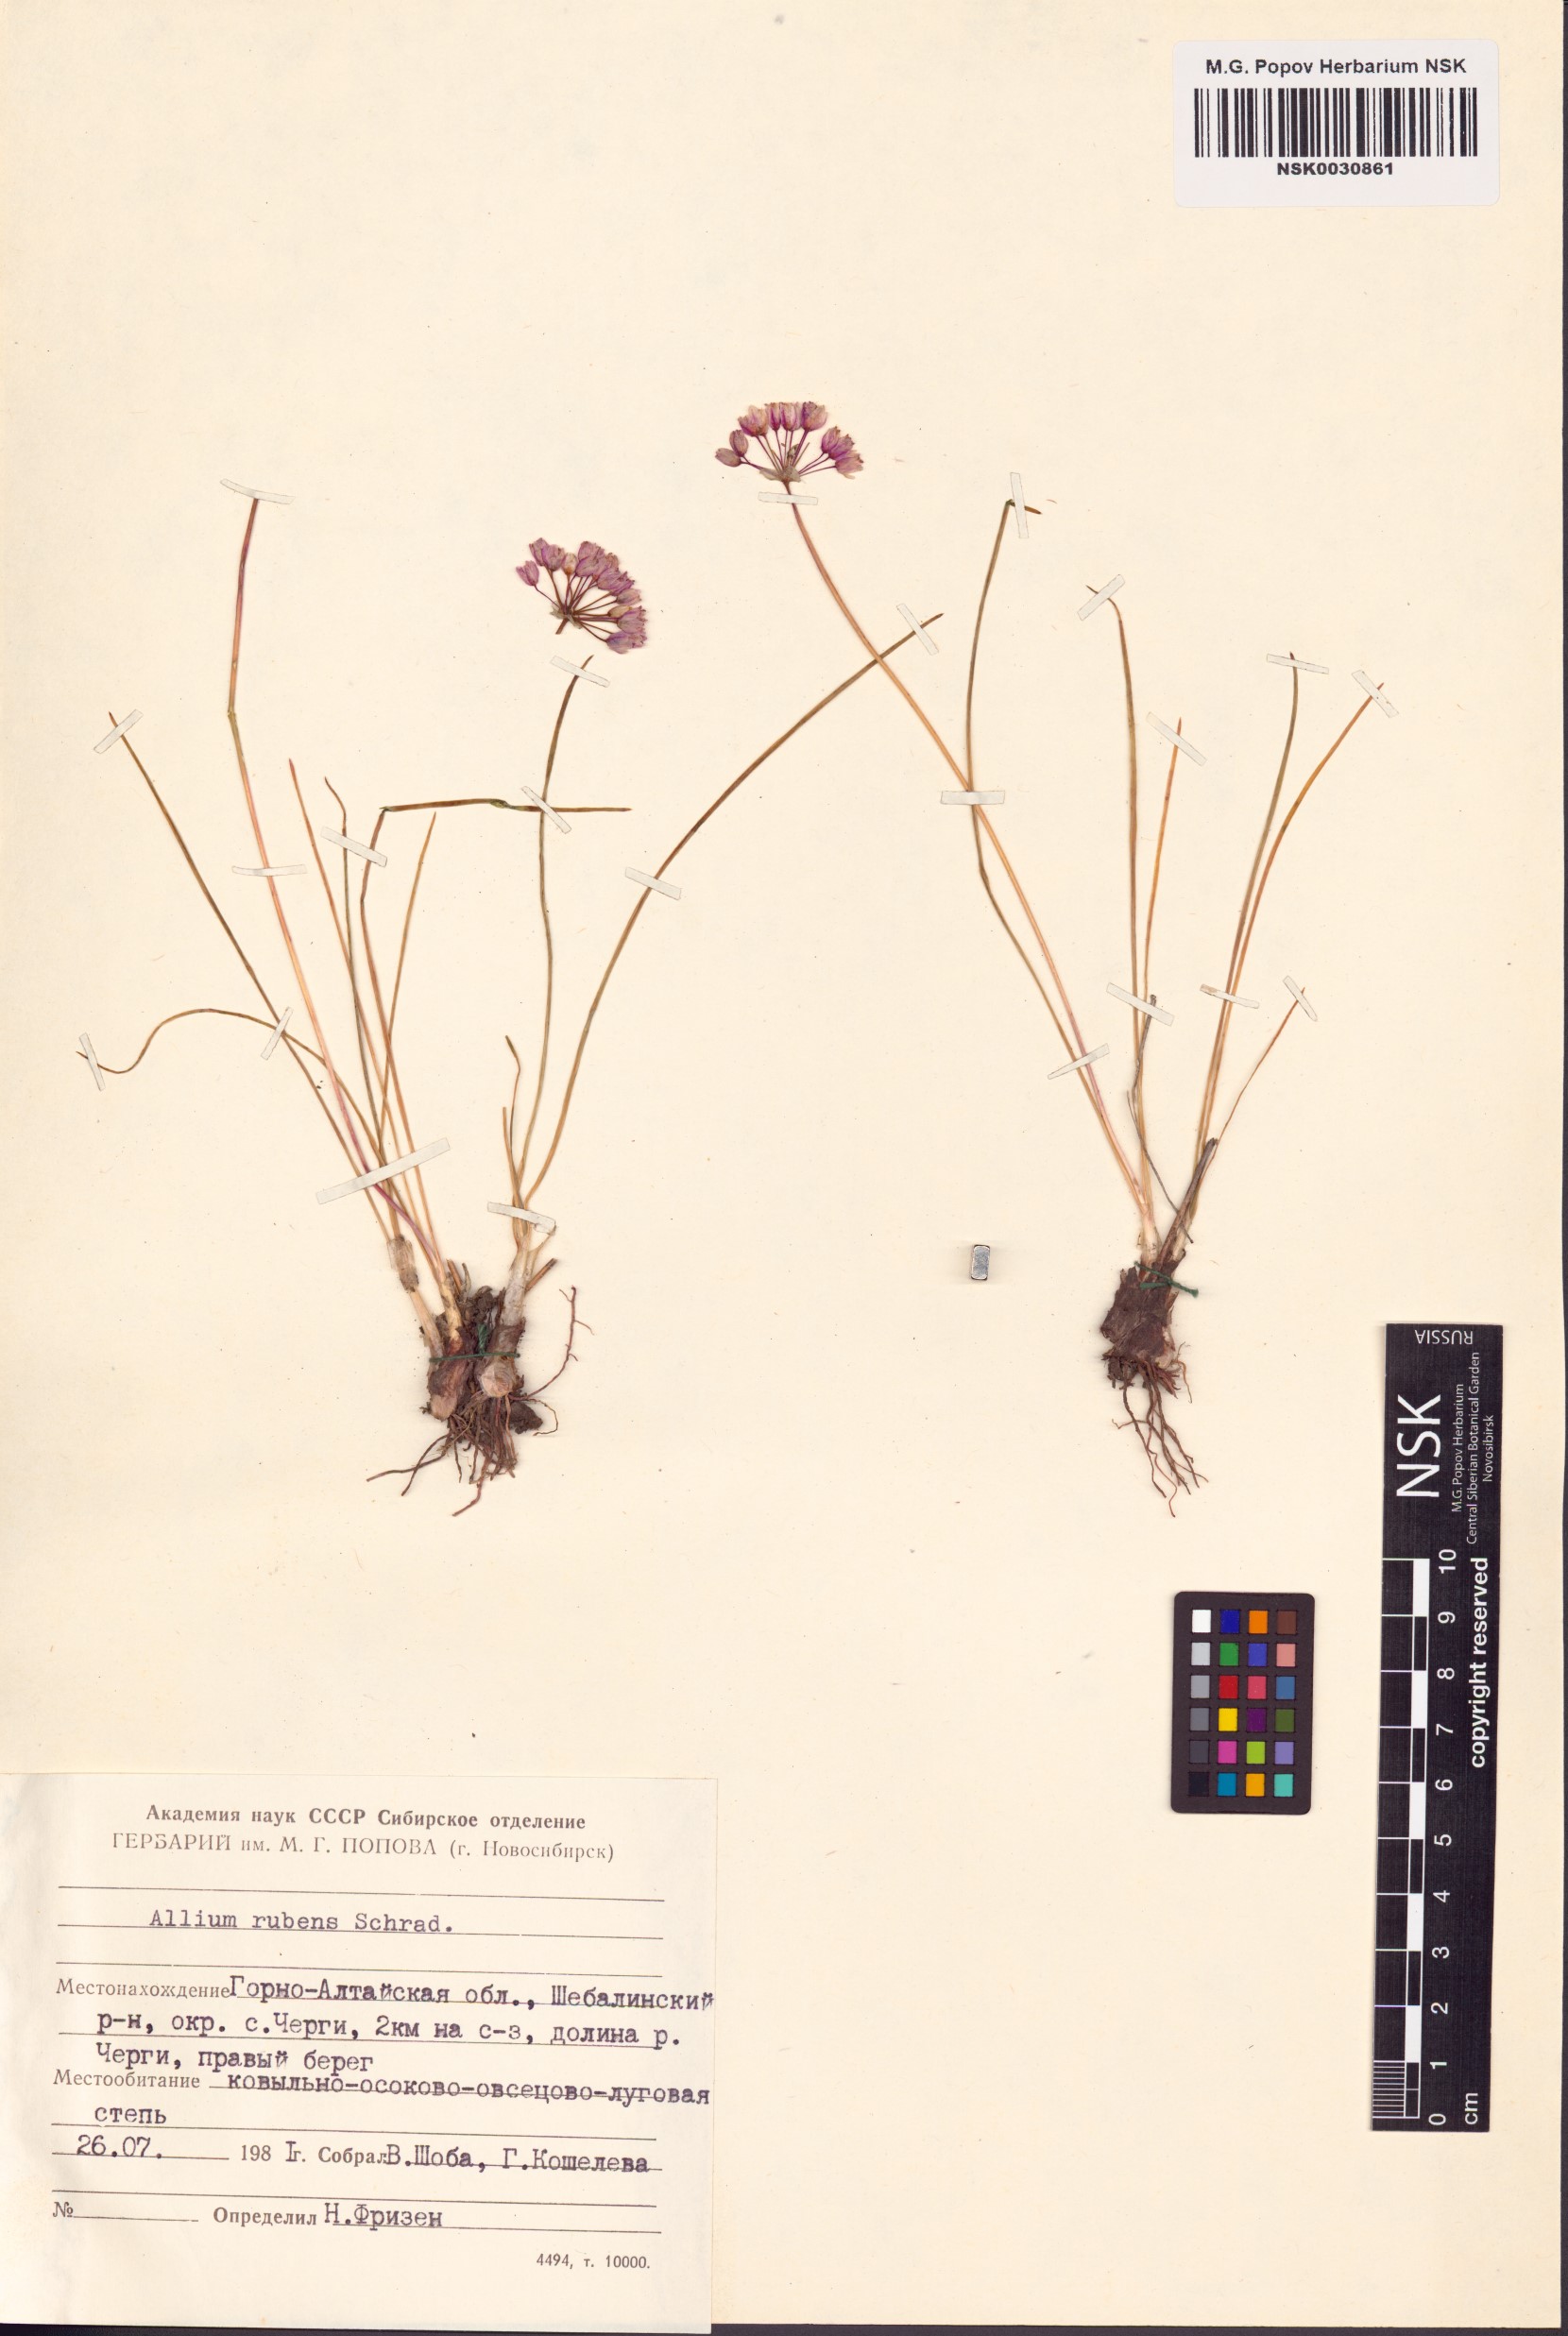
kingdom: Plantae
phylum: Tracheophyta
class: Liliopsida
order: Asparagales
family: Amaryllidaceae
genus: Allium
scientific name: Allium rubens
